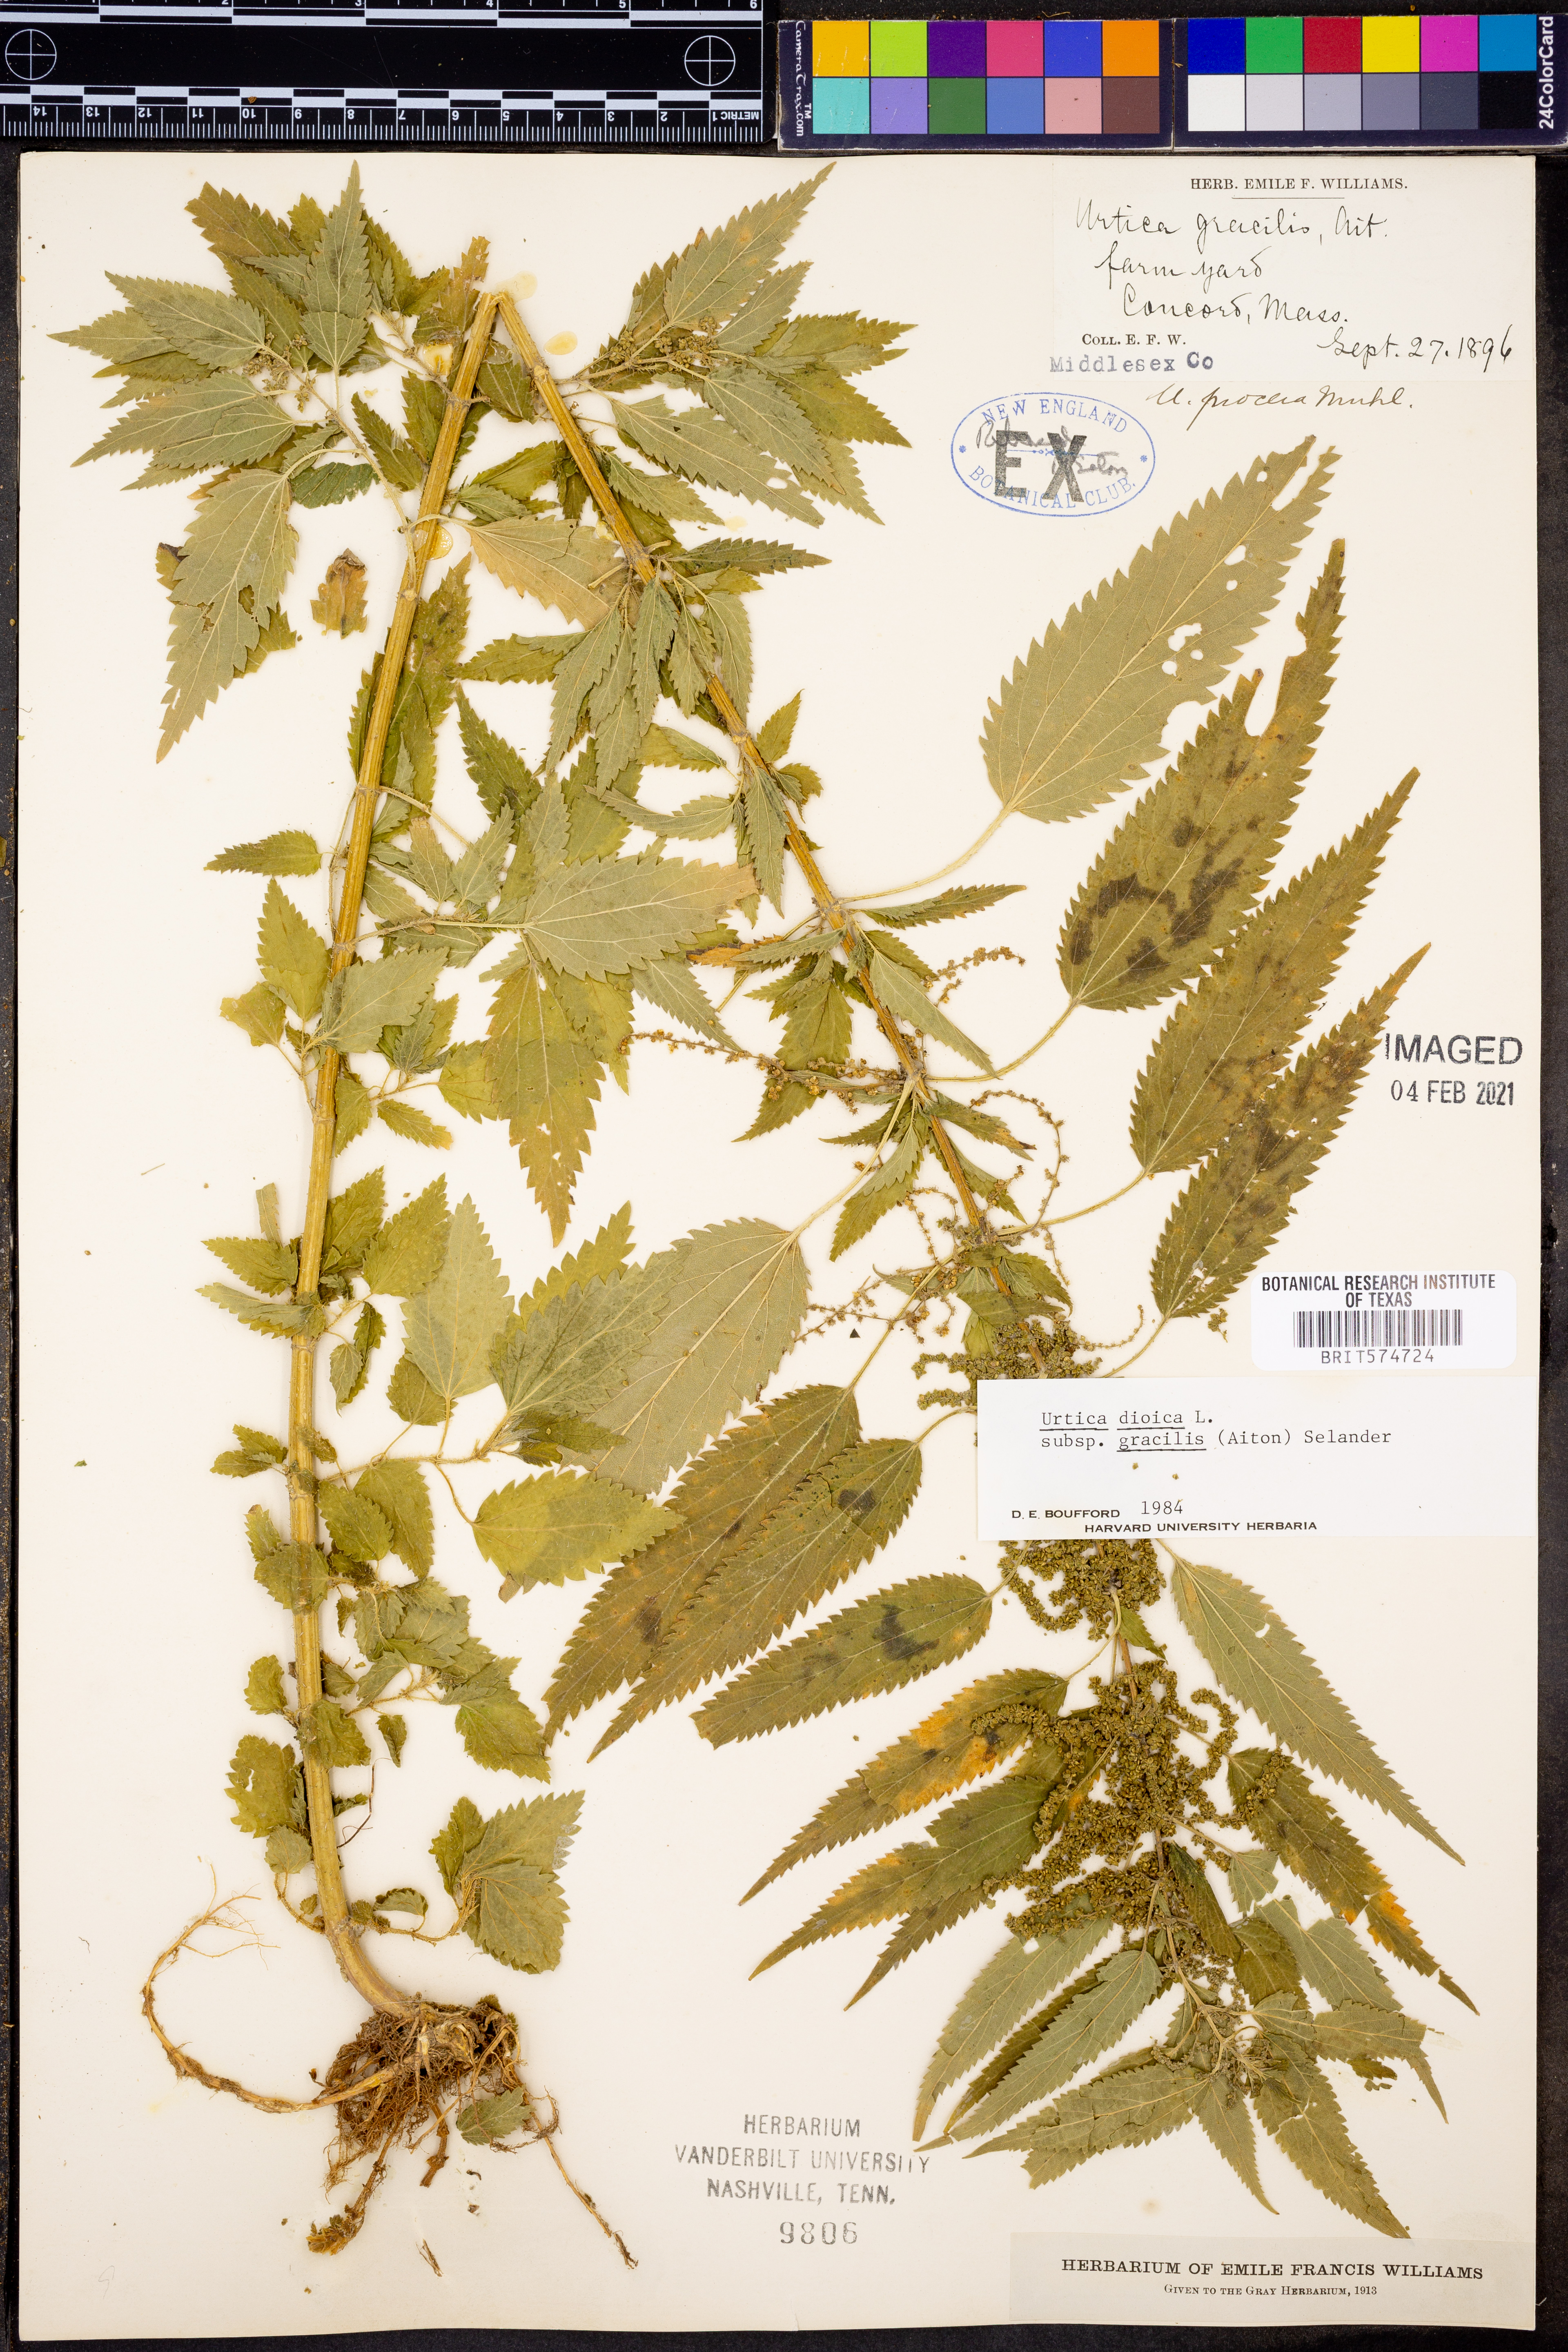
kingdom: Plantae
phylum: Tracheophyta
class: Magnoliopsida
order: Rosales
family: Urticaceae
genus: Urtica
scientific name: Urtica gracilis
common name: Slender stinging nettle
